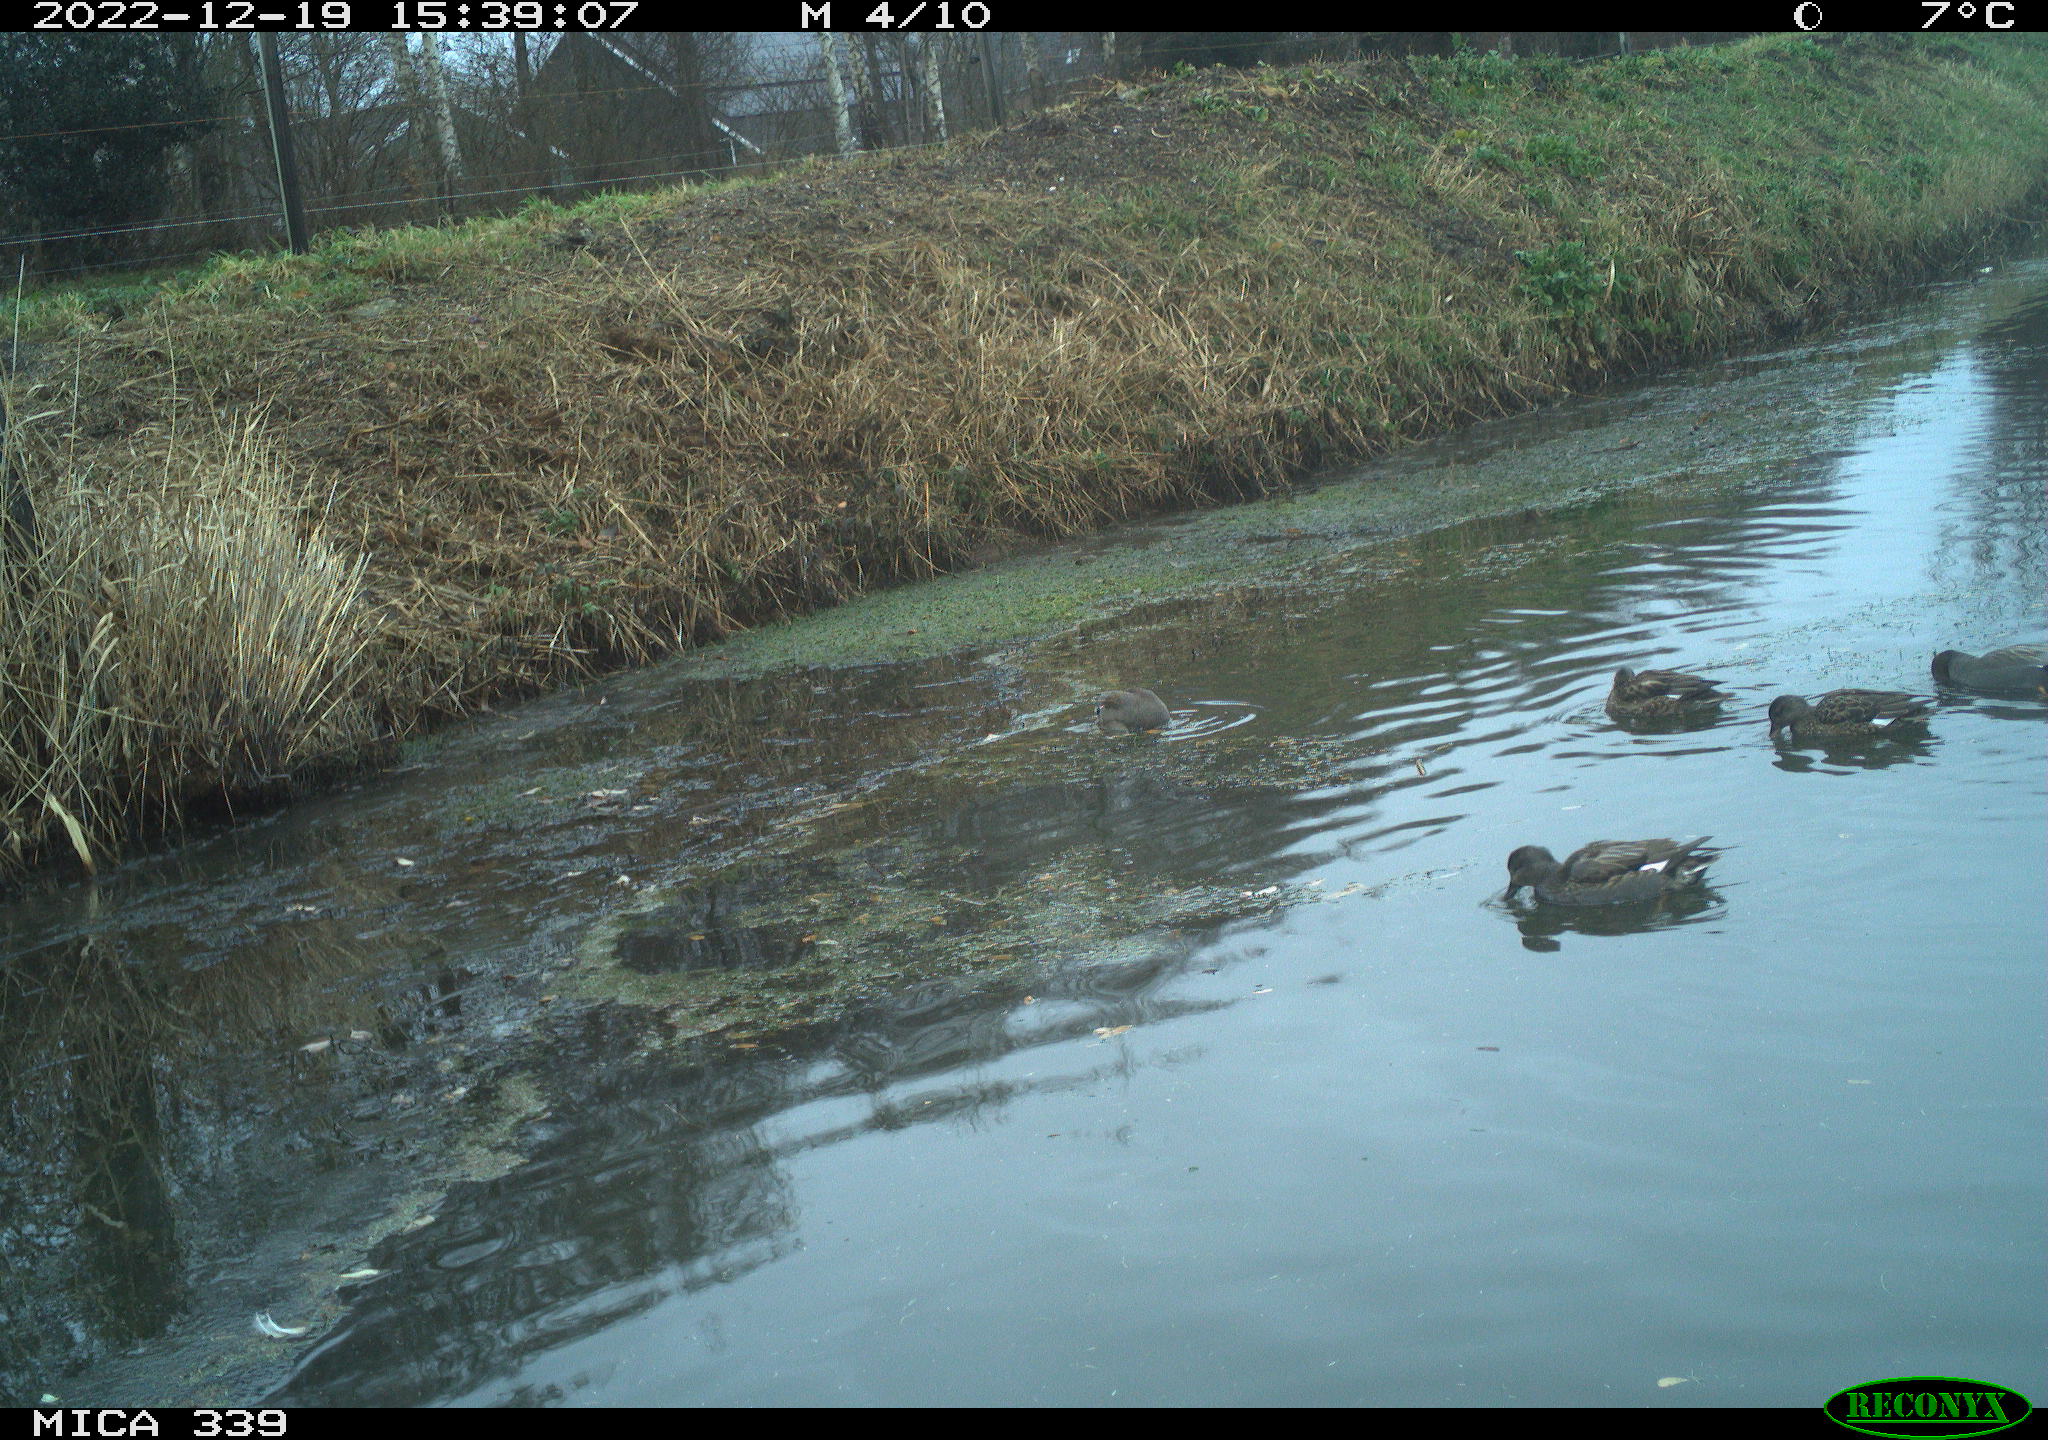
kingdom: Animalia
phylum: Chordata
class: Aves
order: Anseriformes
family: Anatidae
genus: Anas
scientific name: Anas
